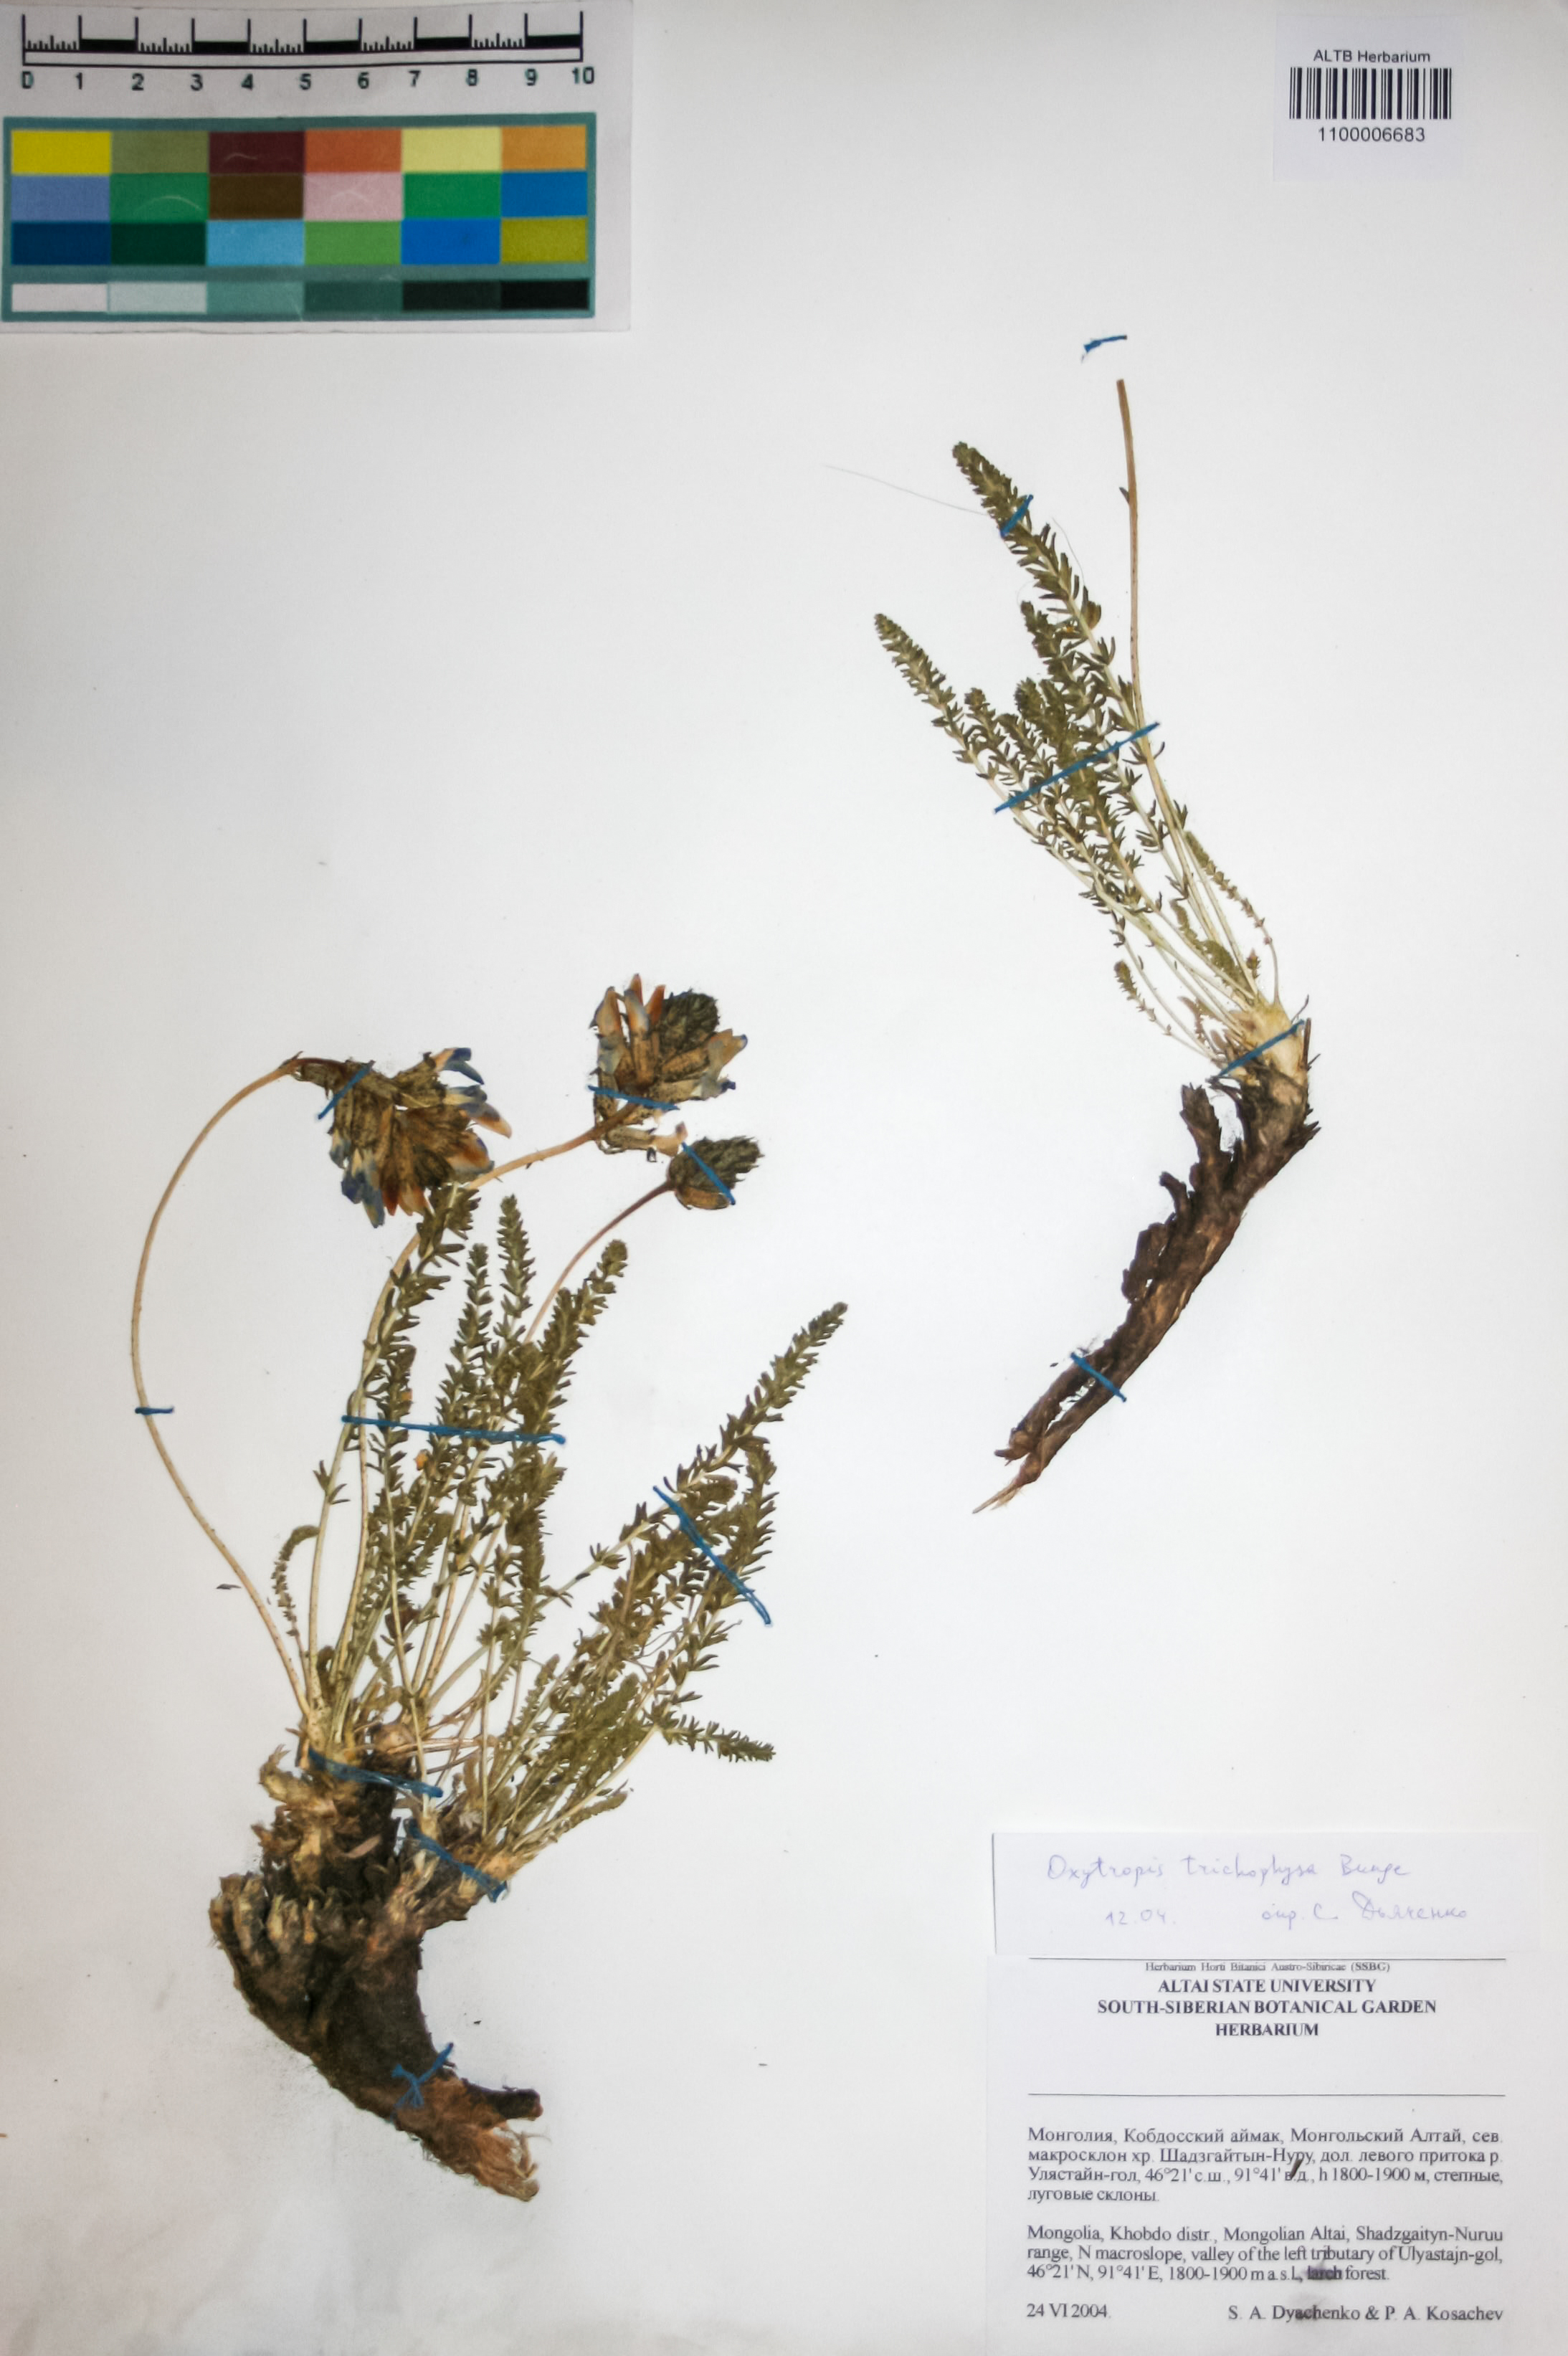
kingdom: Plantae
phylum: Tracheophyta
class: Magnoliopsida
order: Fabales
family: Fabaceae
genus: Oxytropis
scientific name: Oxytropis trichophysa
